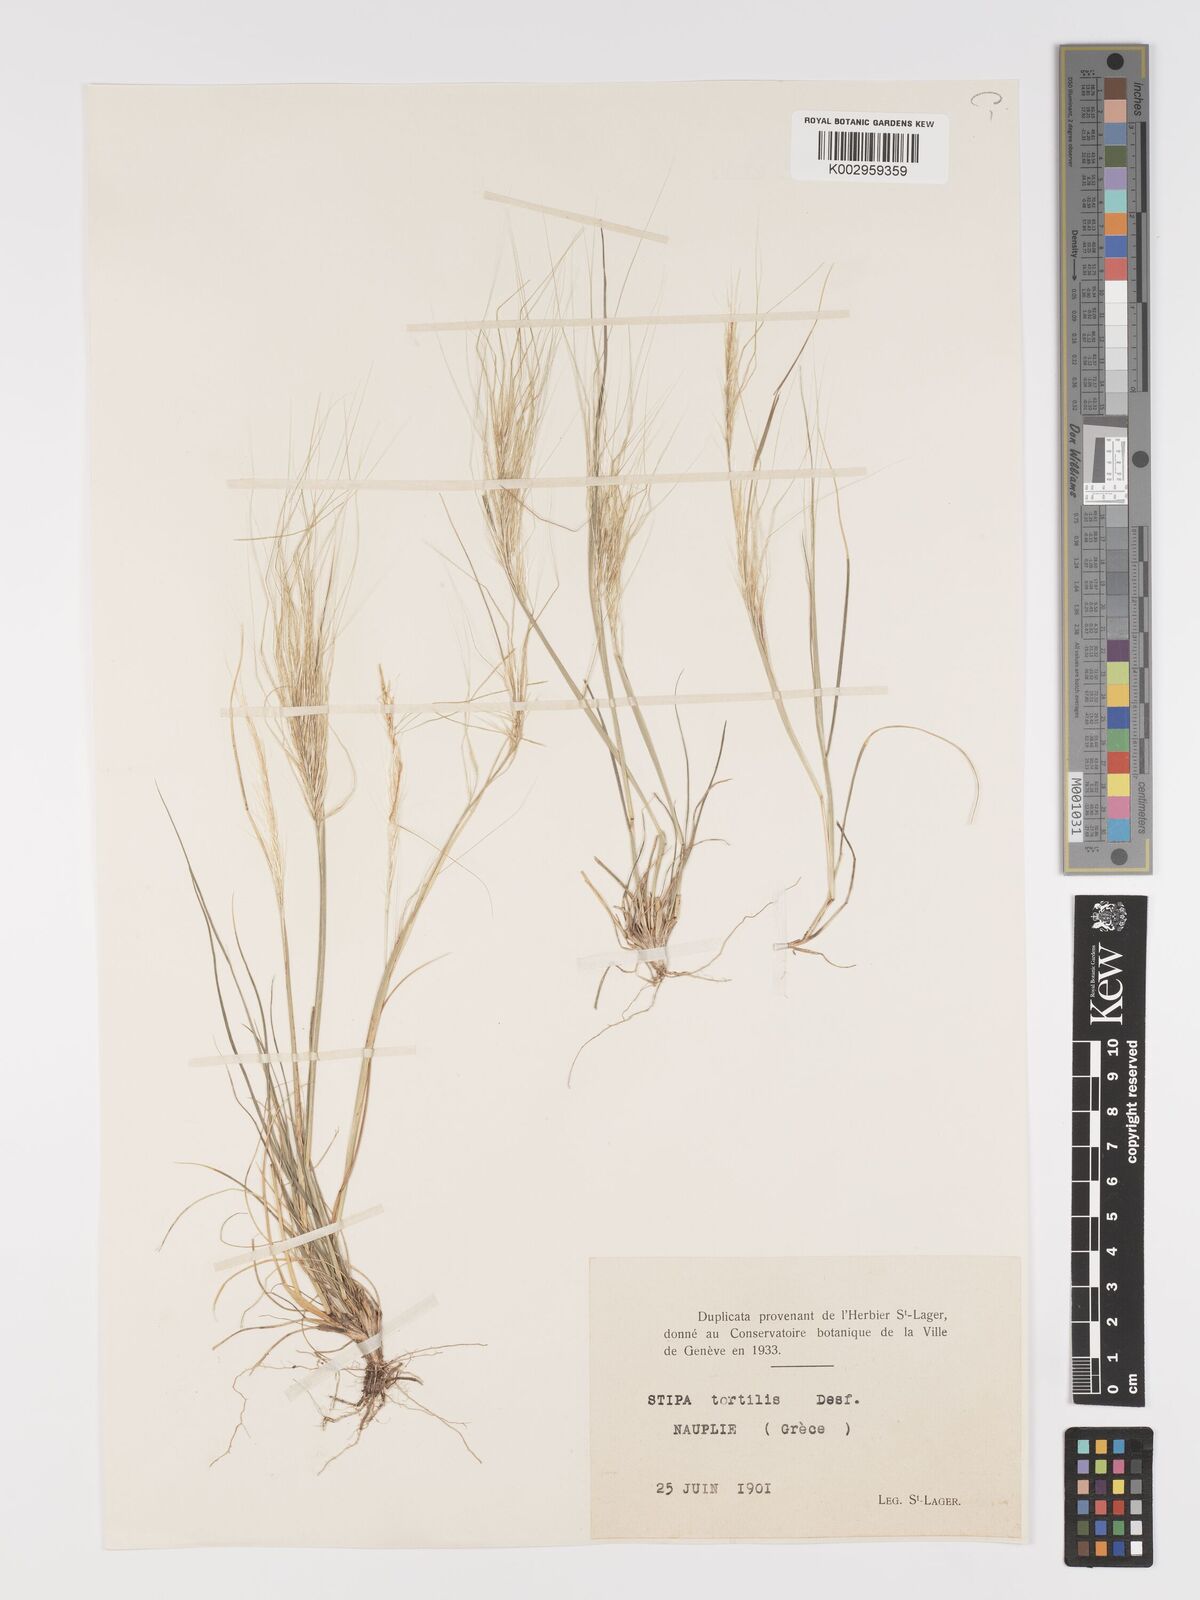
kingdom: Plantae
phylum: Tracheophyta
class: Liliopsida
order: Poales
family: Poaceae
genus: Stipellula
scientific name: Stipellula capensis
